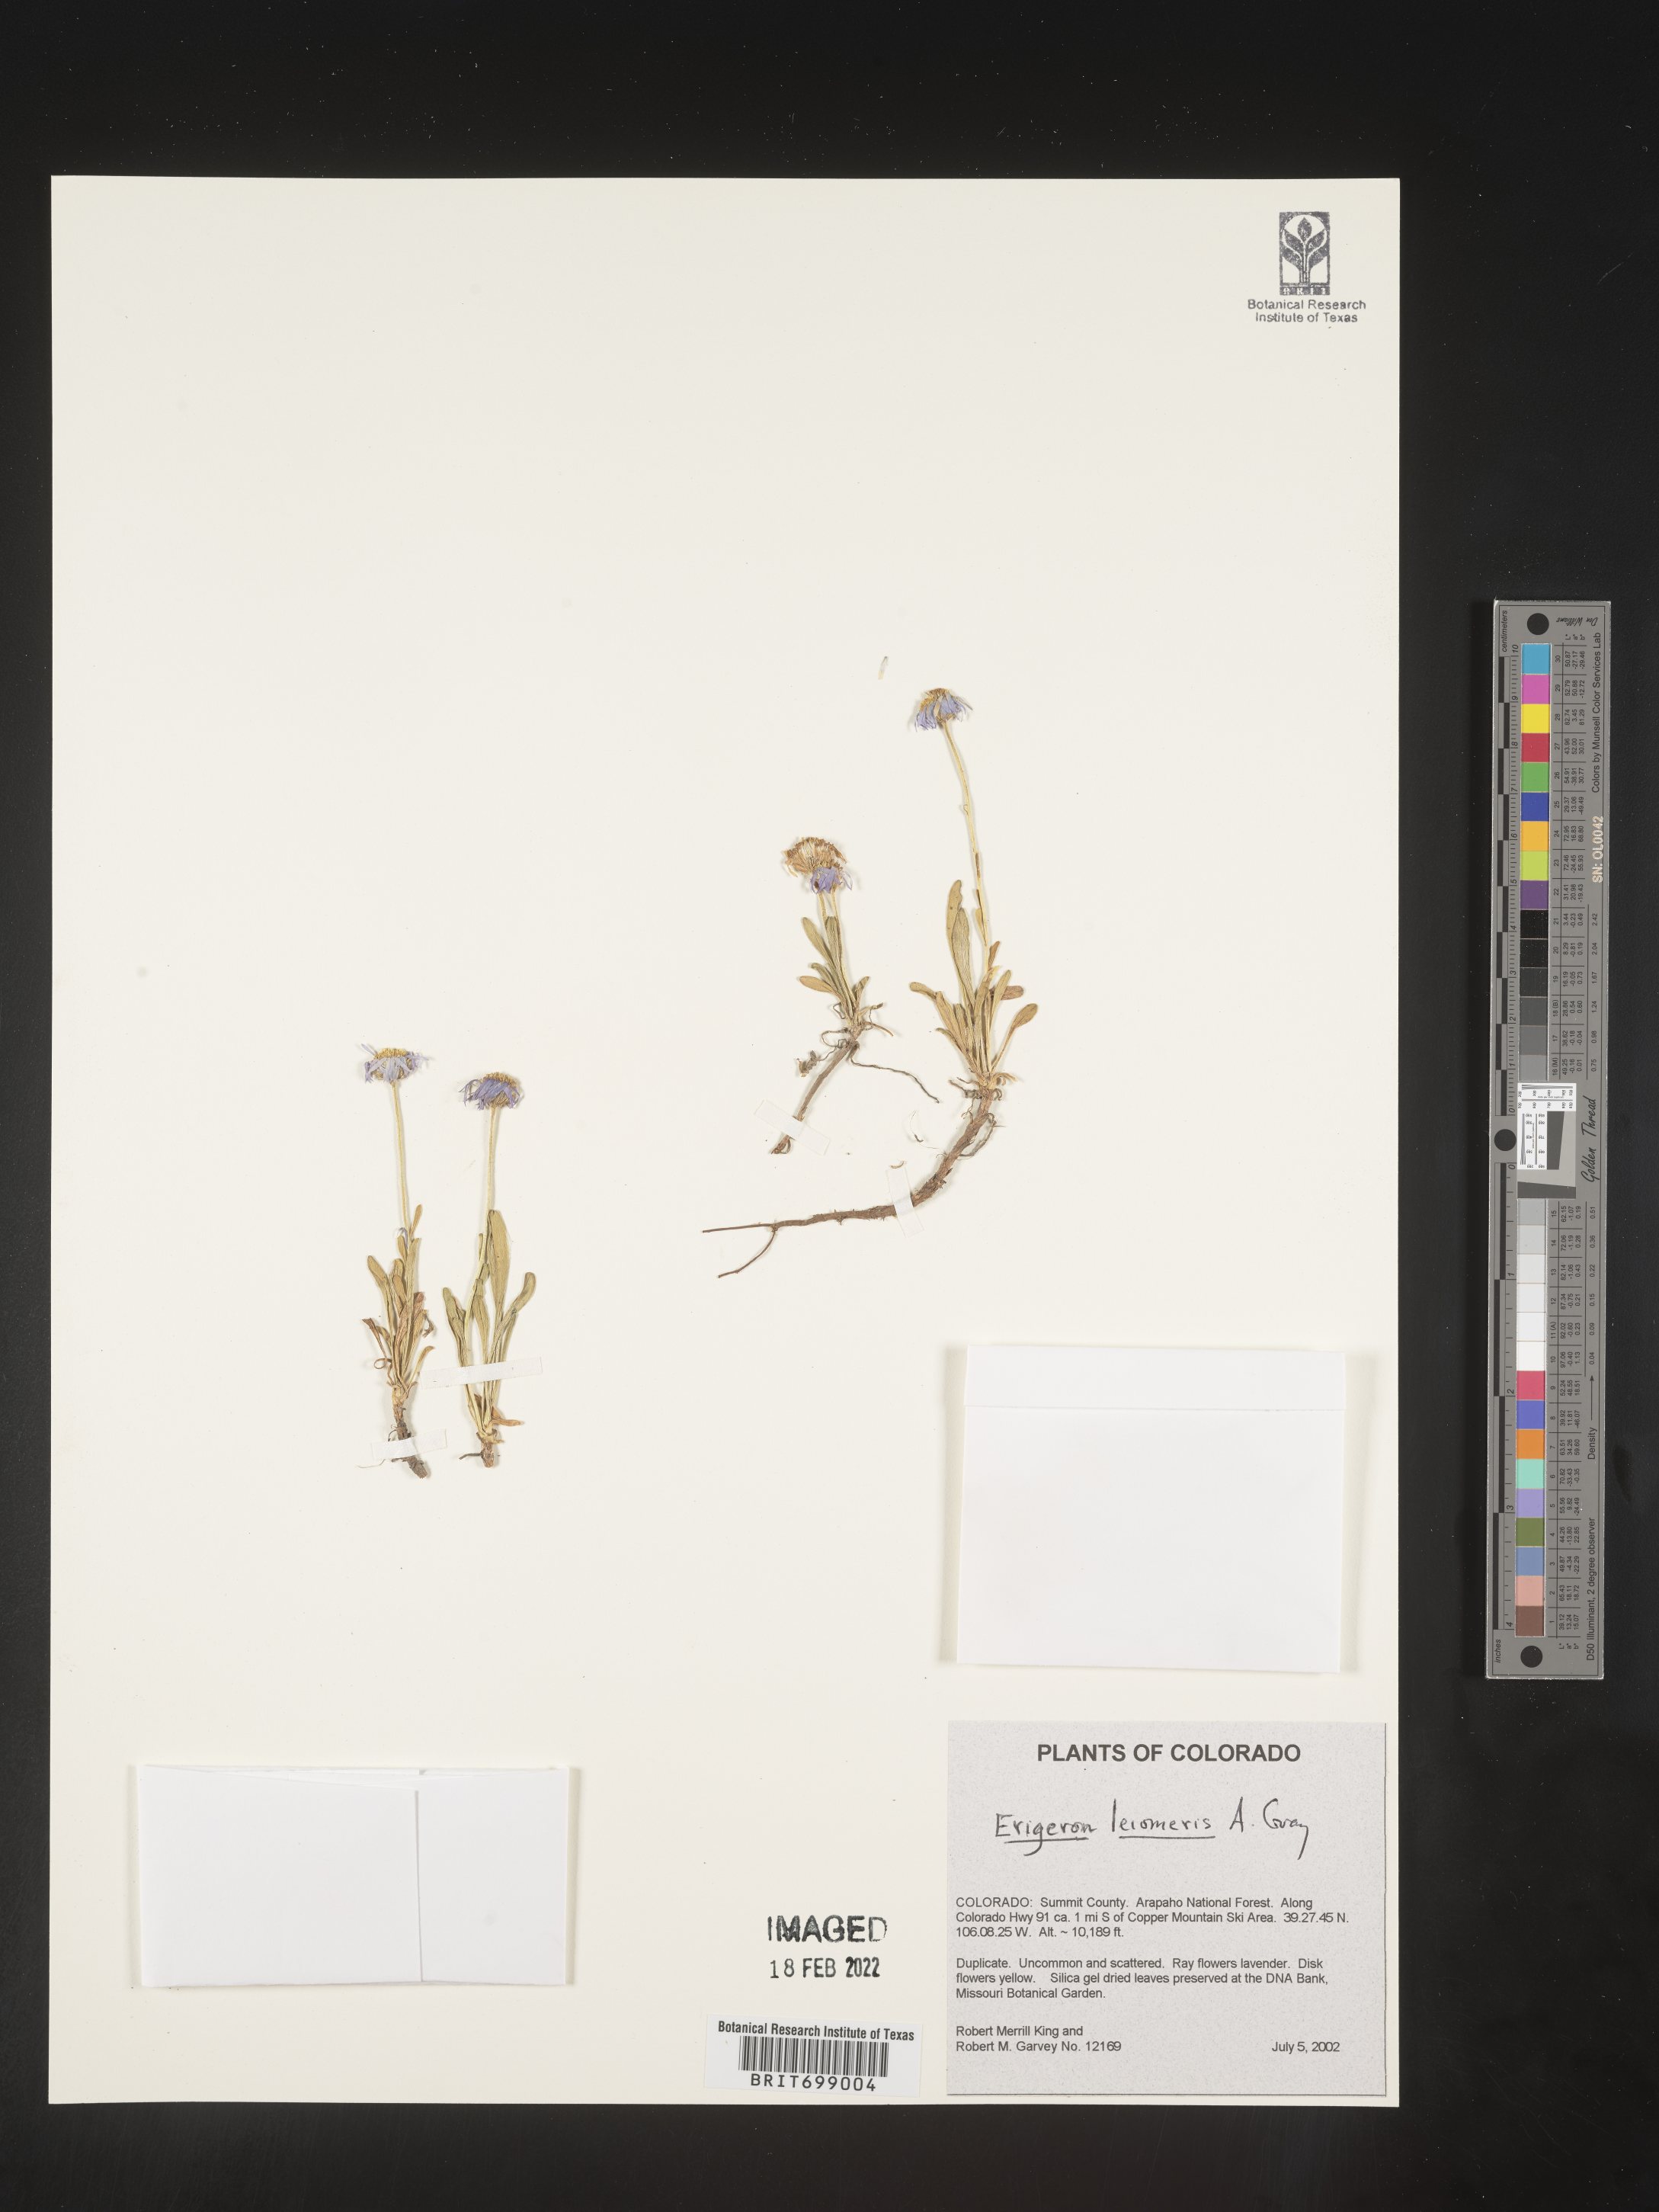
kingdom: Plantae
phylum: Tracheophyta
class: Magnoliopsida
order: Asterales
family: Asteraceae
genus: Erigeron
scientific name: Erigeron leiomerus
